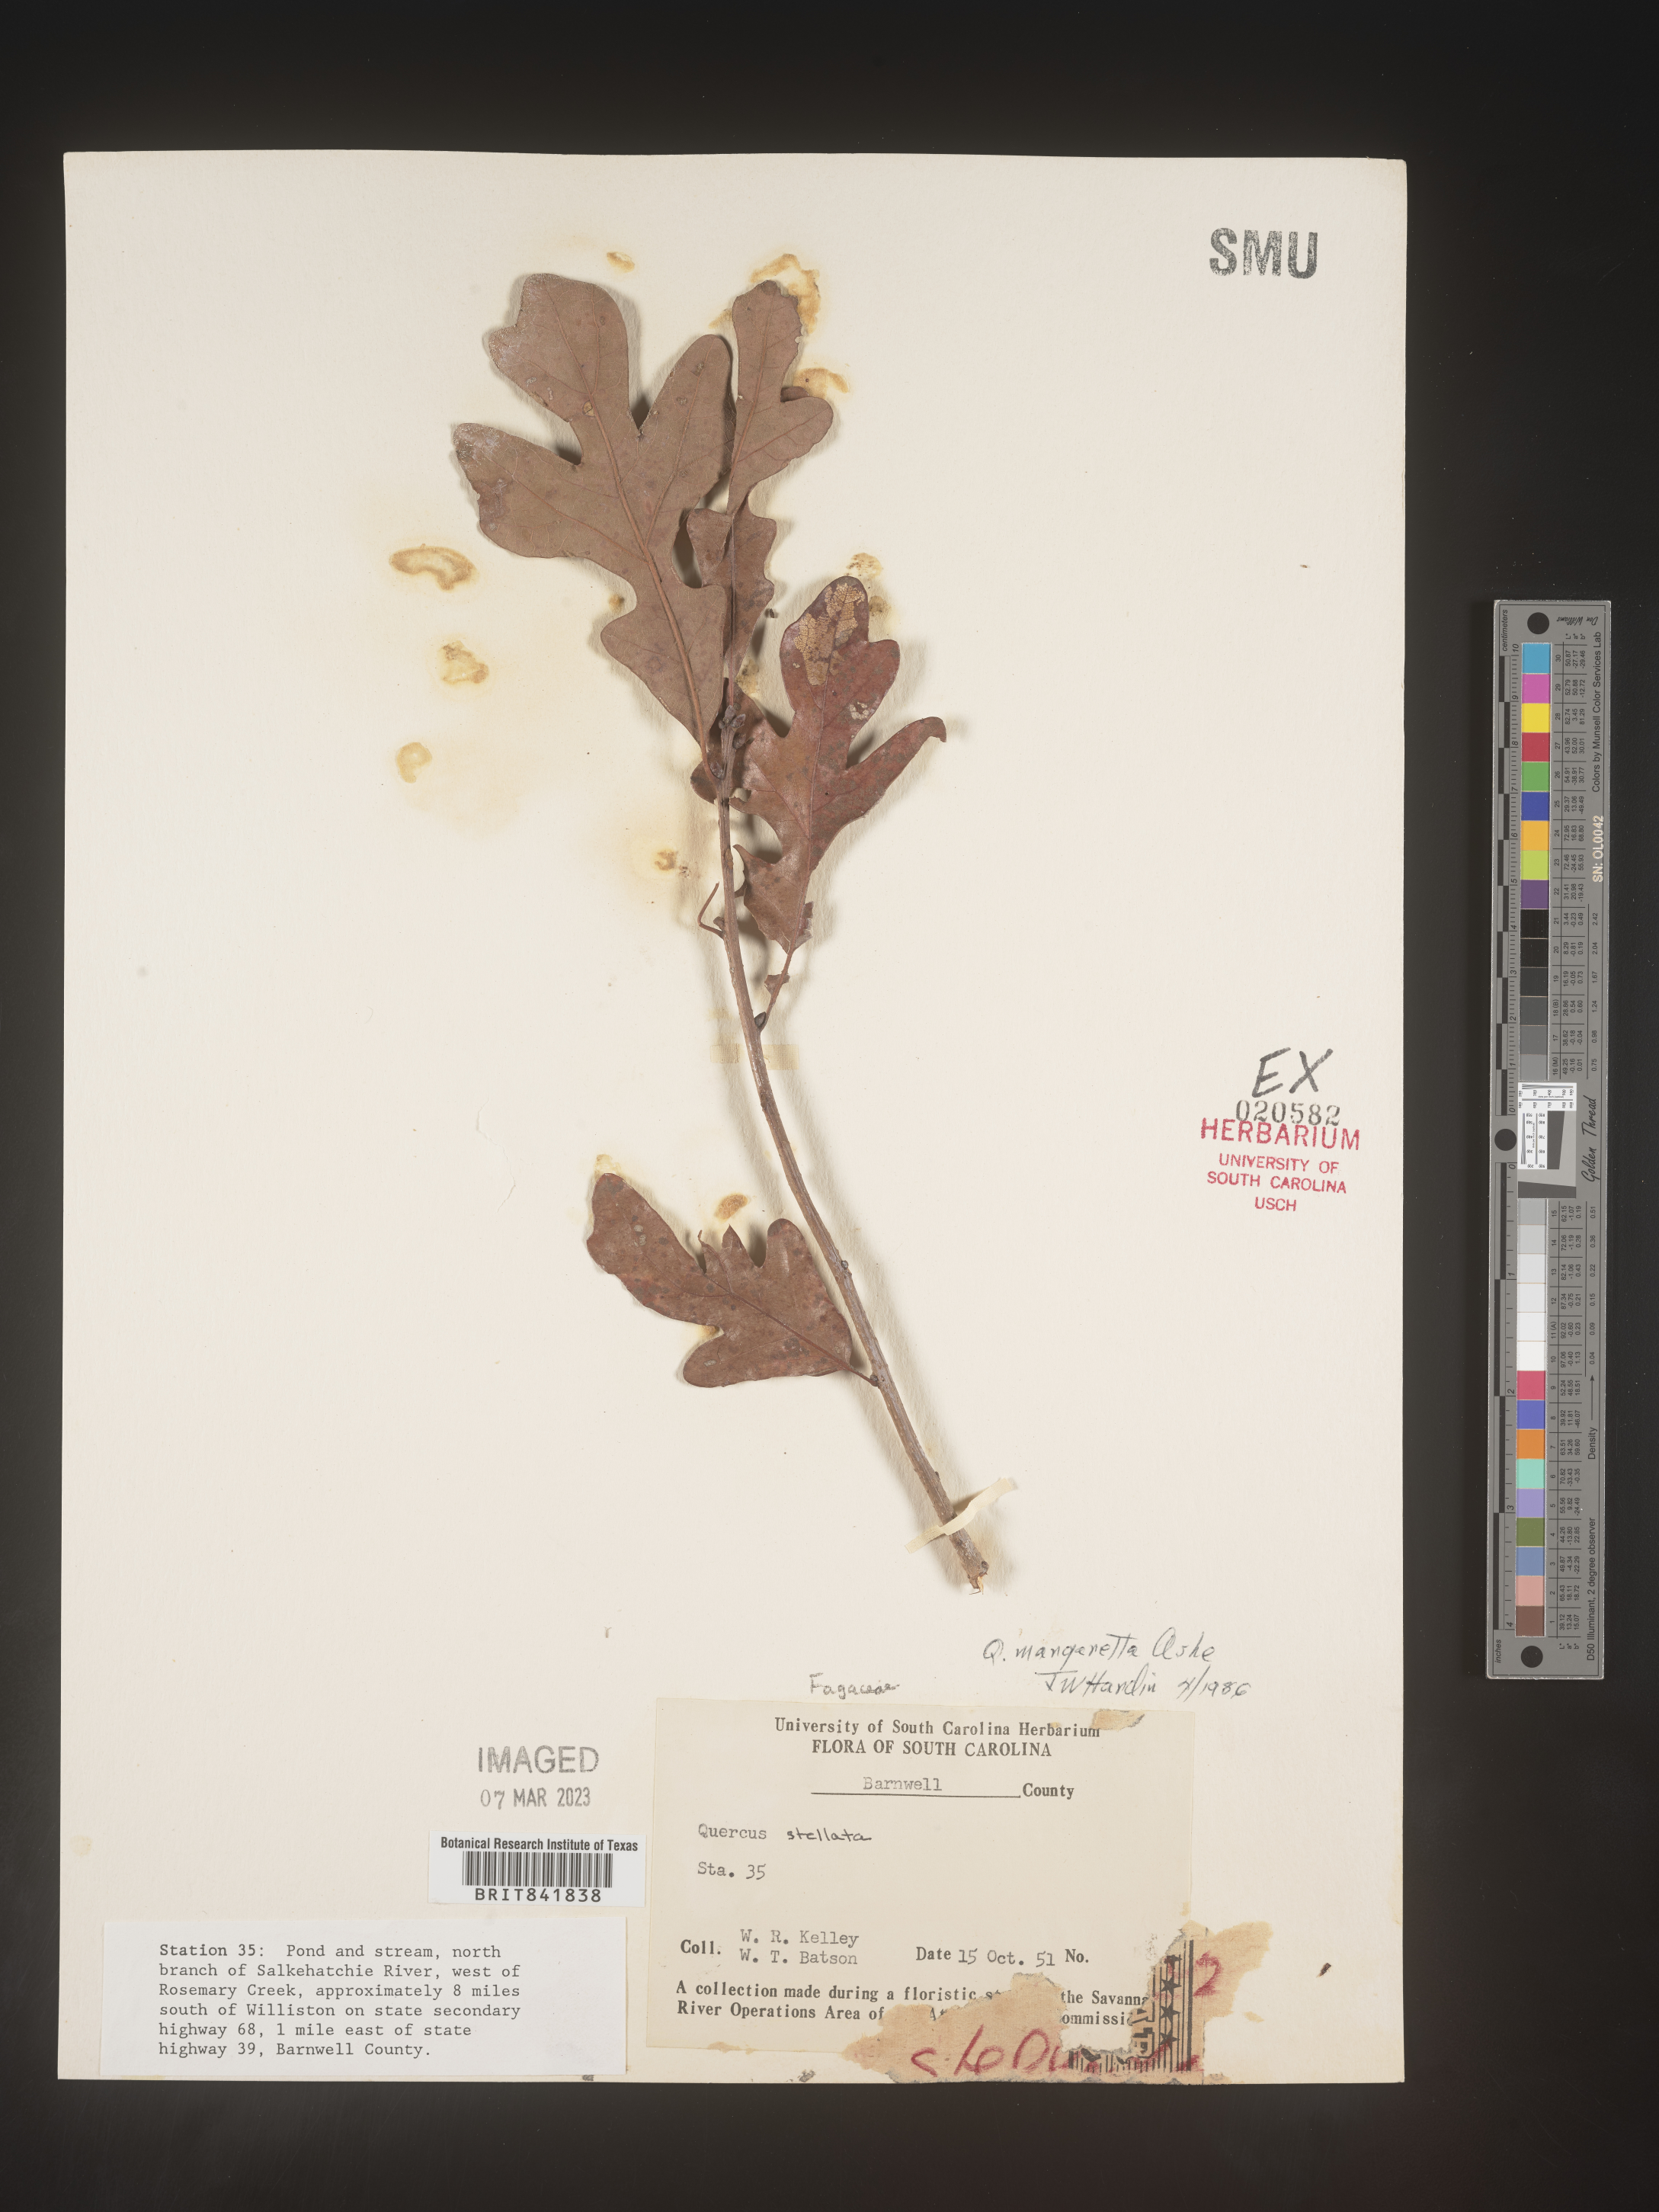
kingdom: Plantae
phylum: Tracheophyta
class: Magnoliopsida
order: Fagales
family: Fagaceae
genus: Quercus
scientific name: Quercus stellata
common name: Post oak
